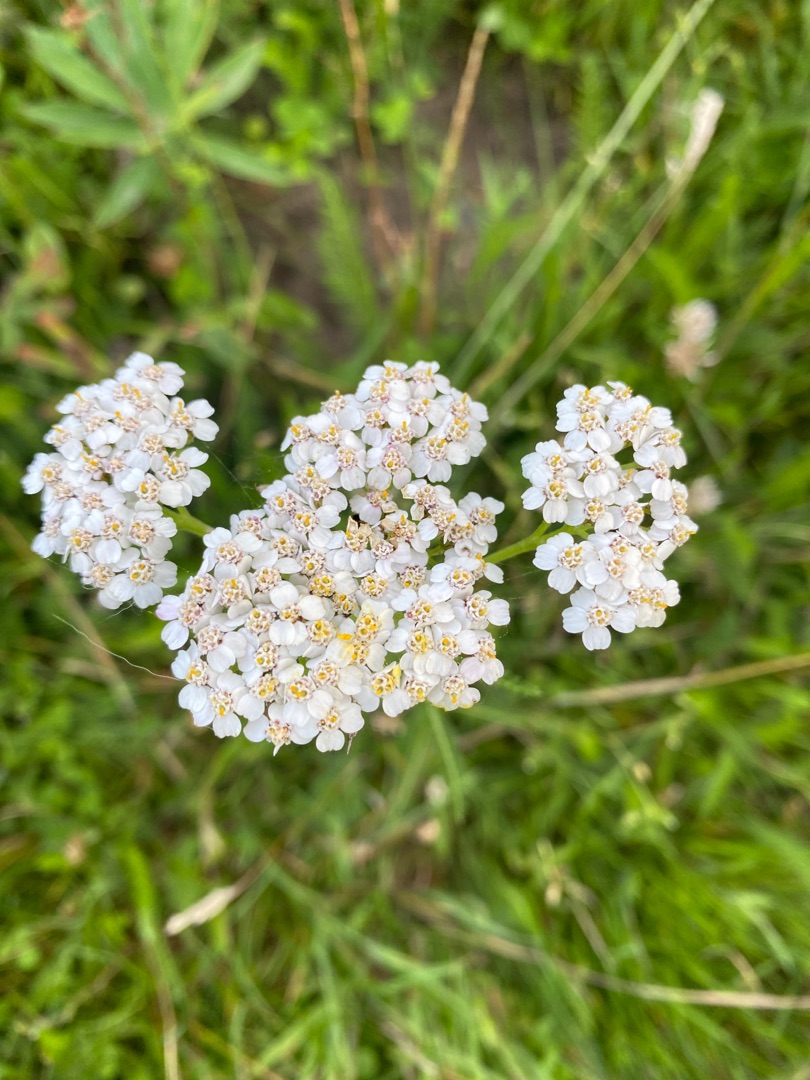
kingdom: Plantae
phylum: Tracheophyta
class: Magnoliopsida
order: Asterales
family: Asteraceae
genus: Achillea
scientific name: Achillea millefolium
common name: Almindelig røllike
